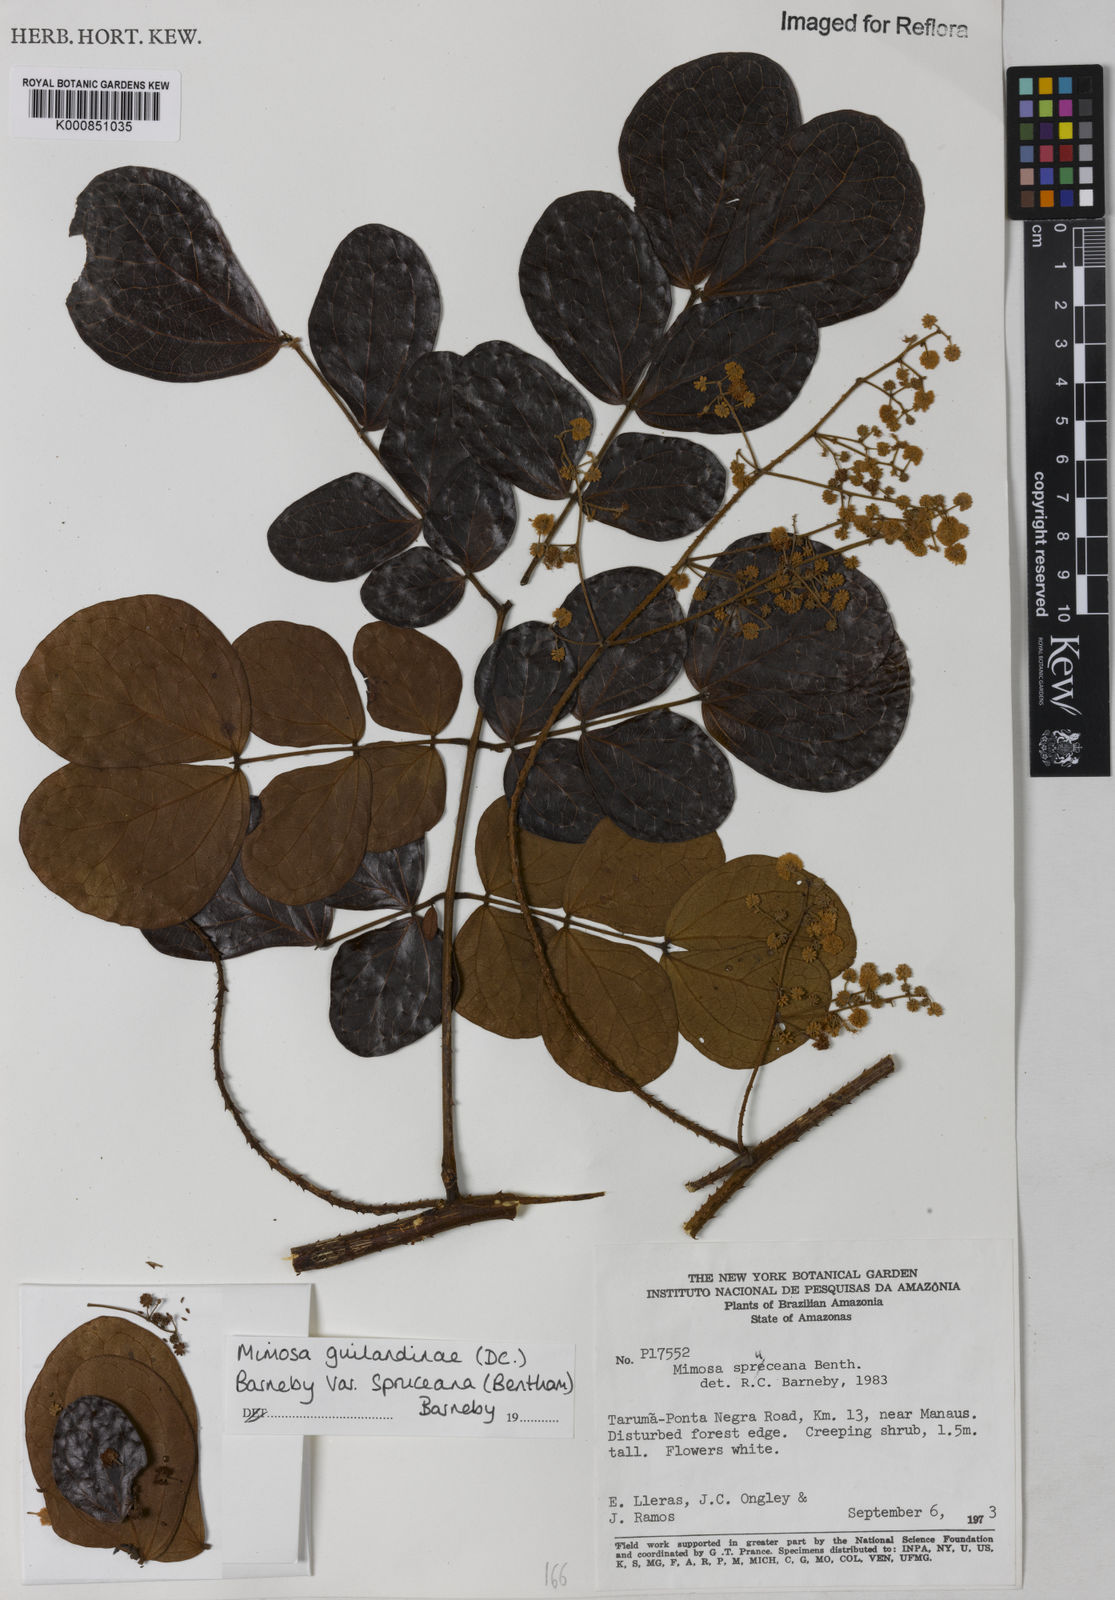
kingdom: Plantae
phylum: Tracheophyta
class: Magnoliopsida
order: Fabales
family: Fabaceae
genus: Mimosa
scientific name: Mimosa guilandinae
